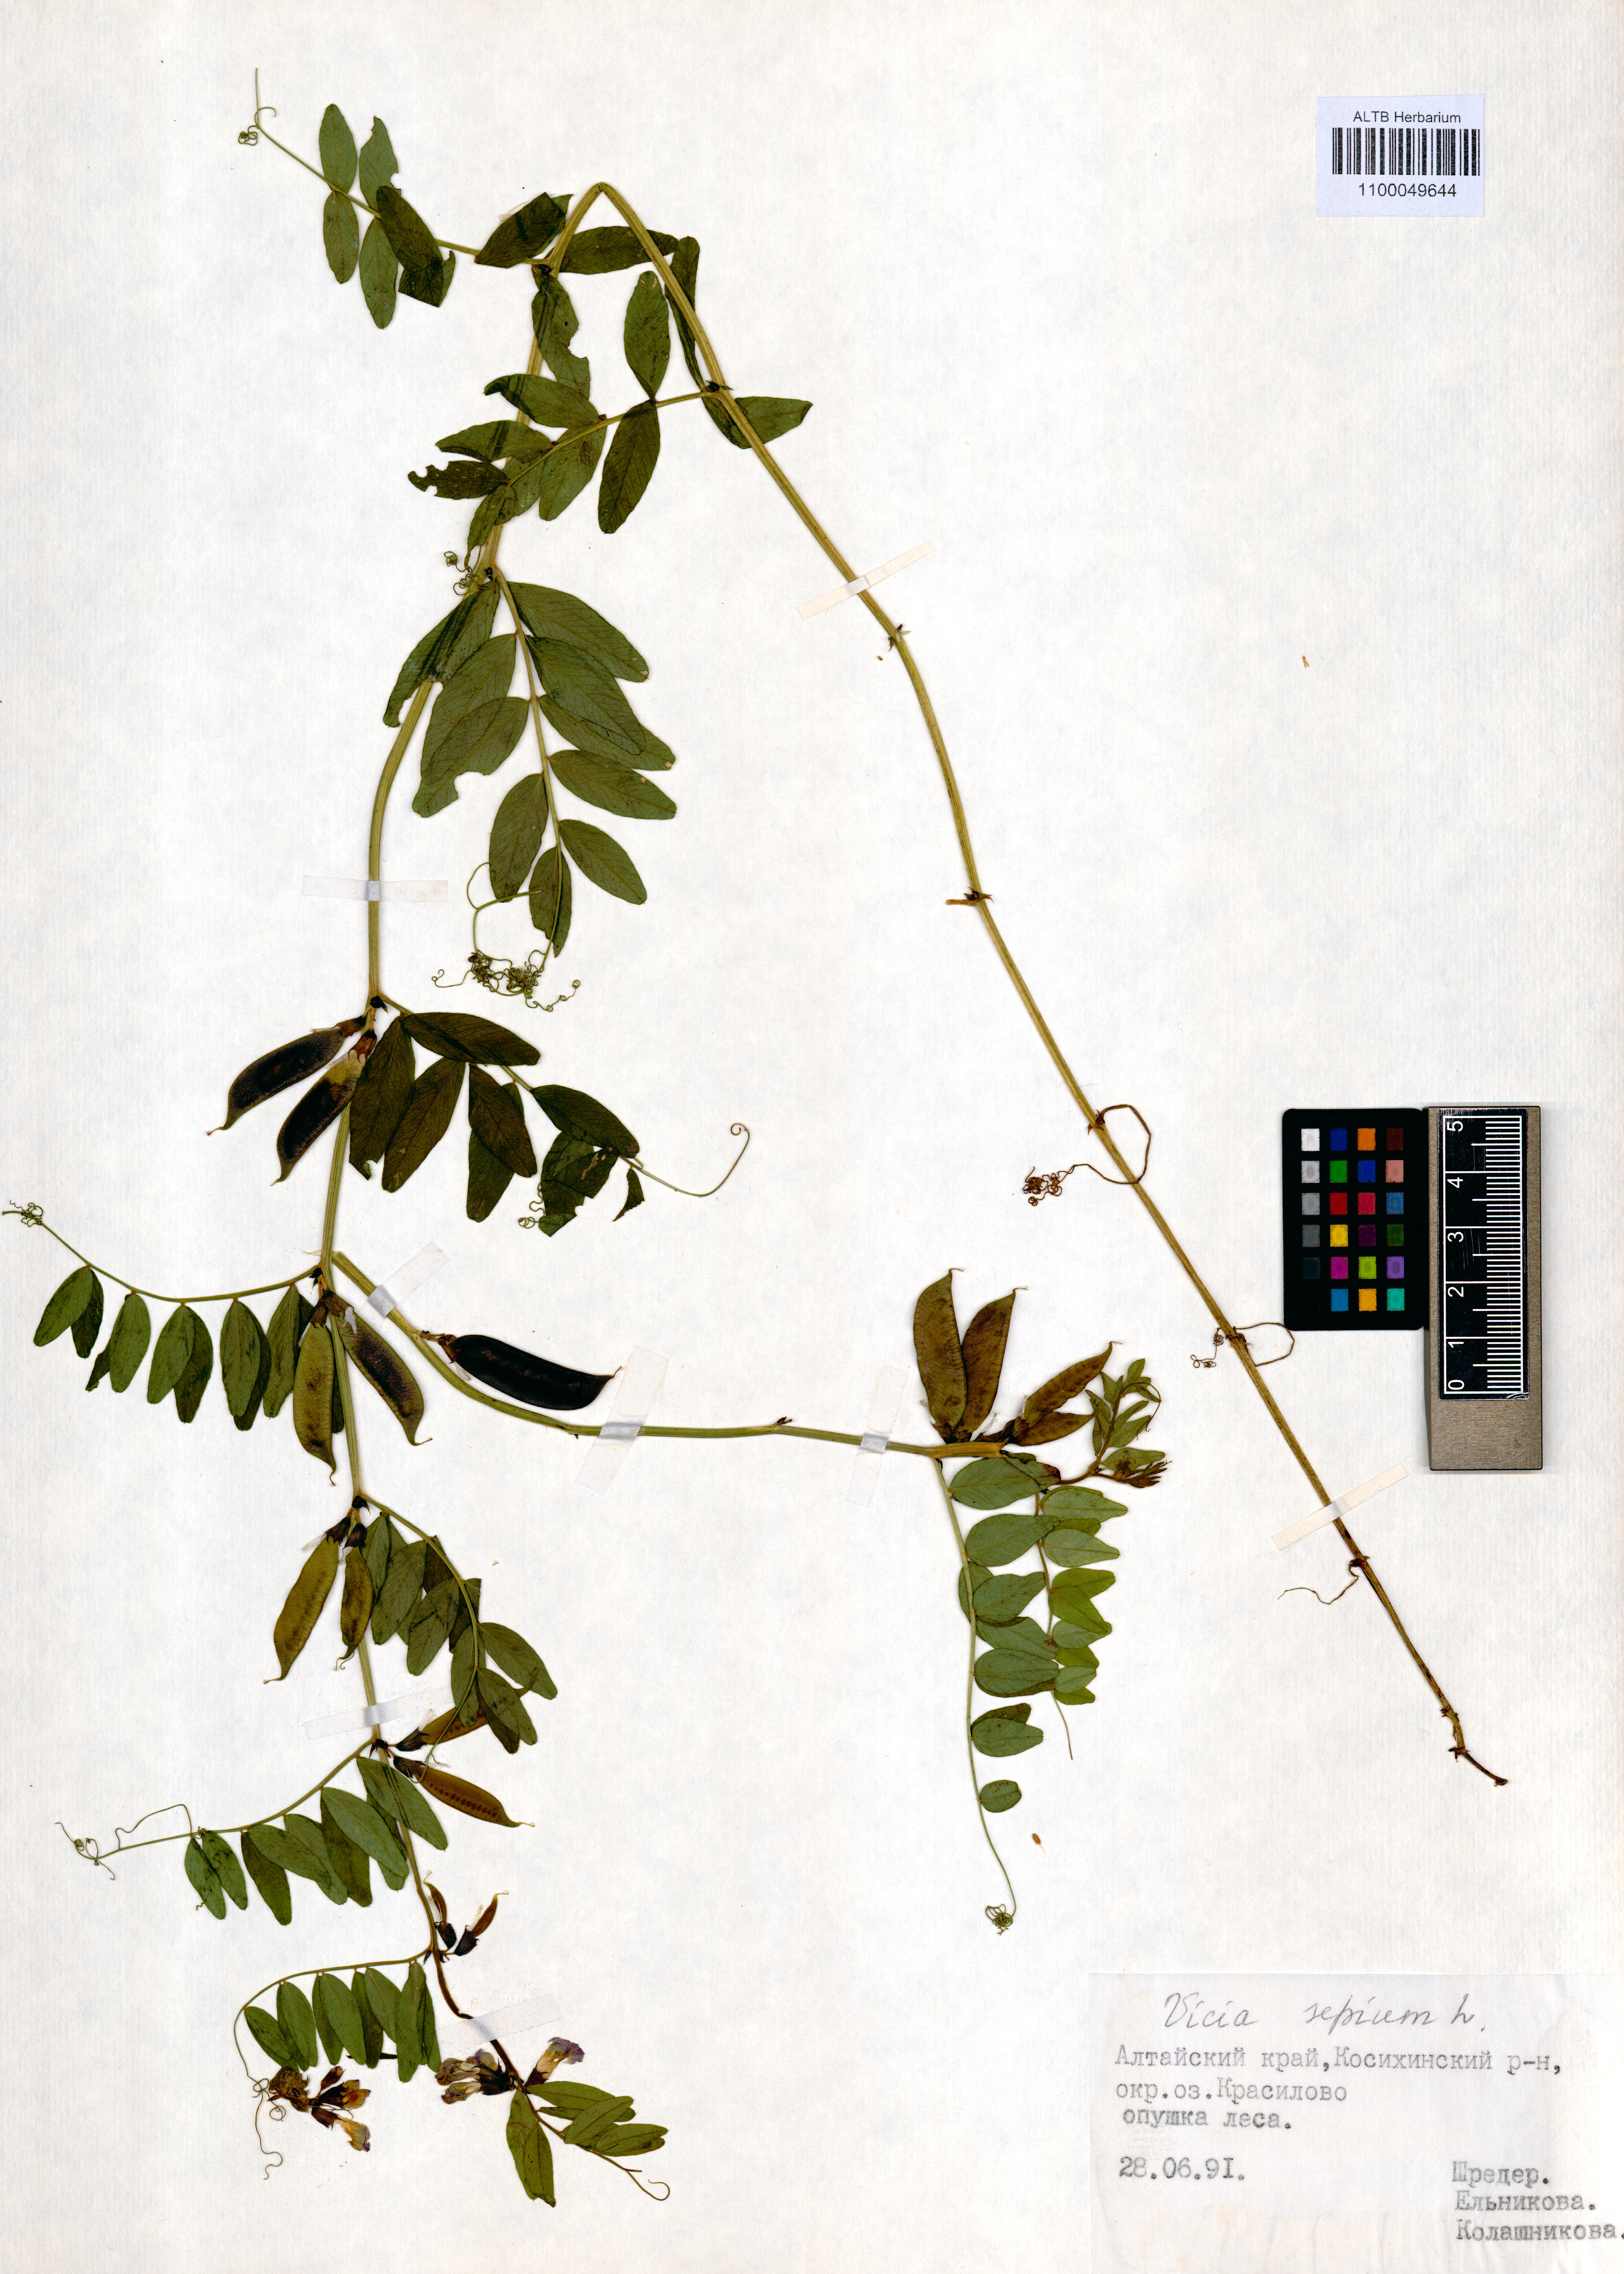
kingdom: Plantae
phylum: Tracheophyta
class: Magnoliopsida
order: Fabales
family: Fabaceae
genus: Vicia
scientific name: Vicia sepium
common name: Bush vetch
